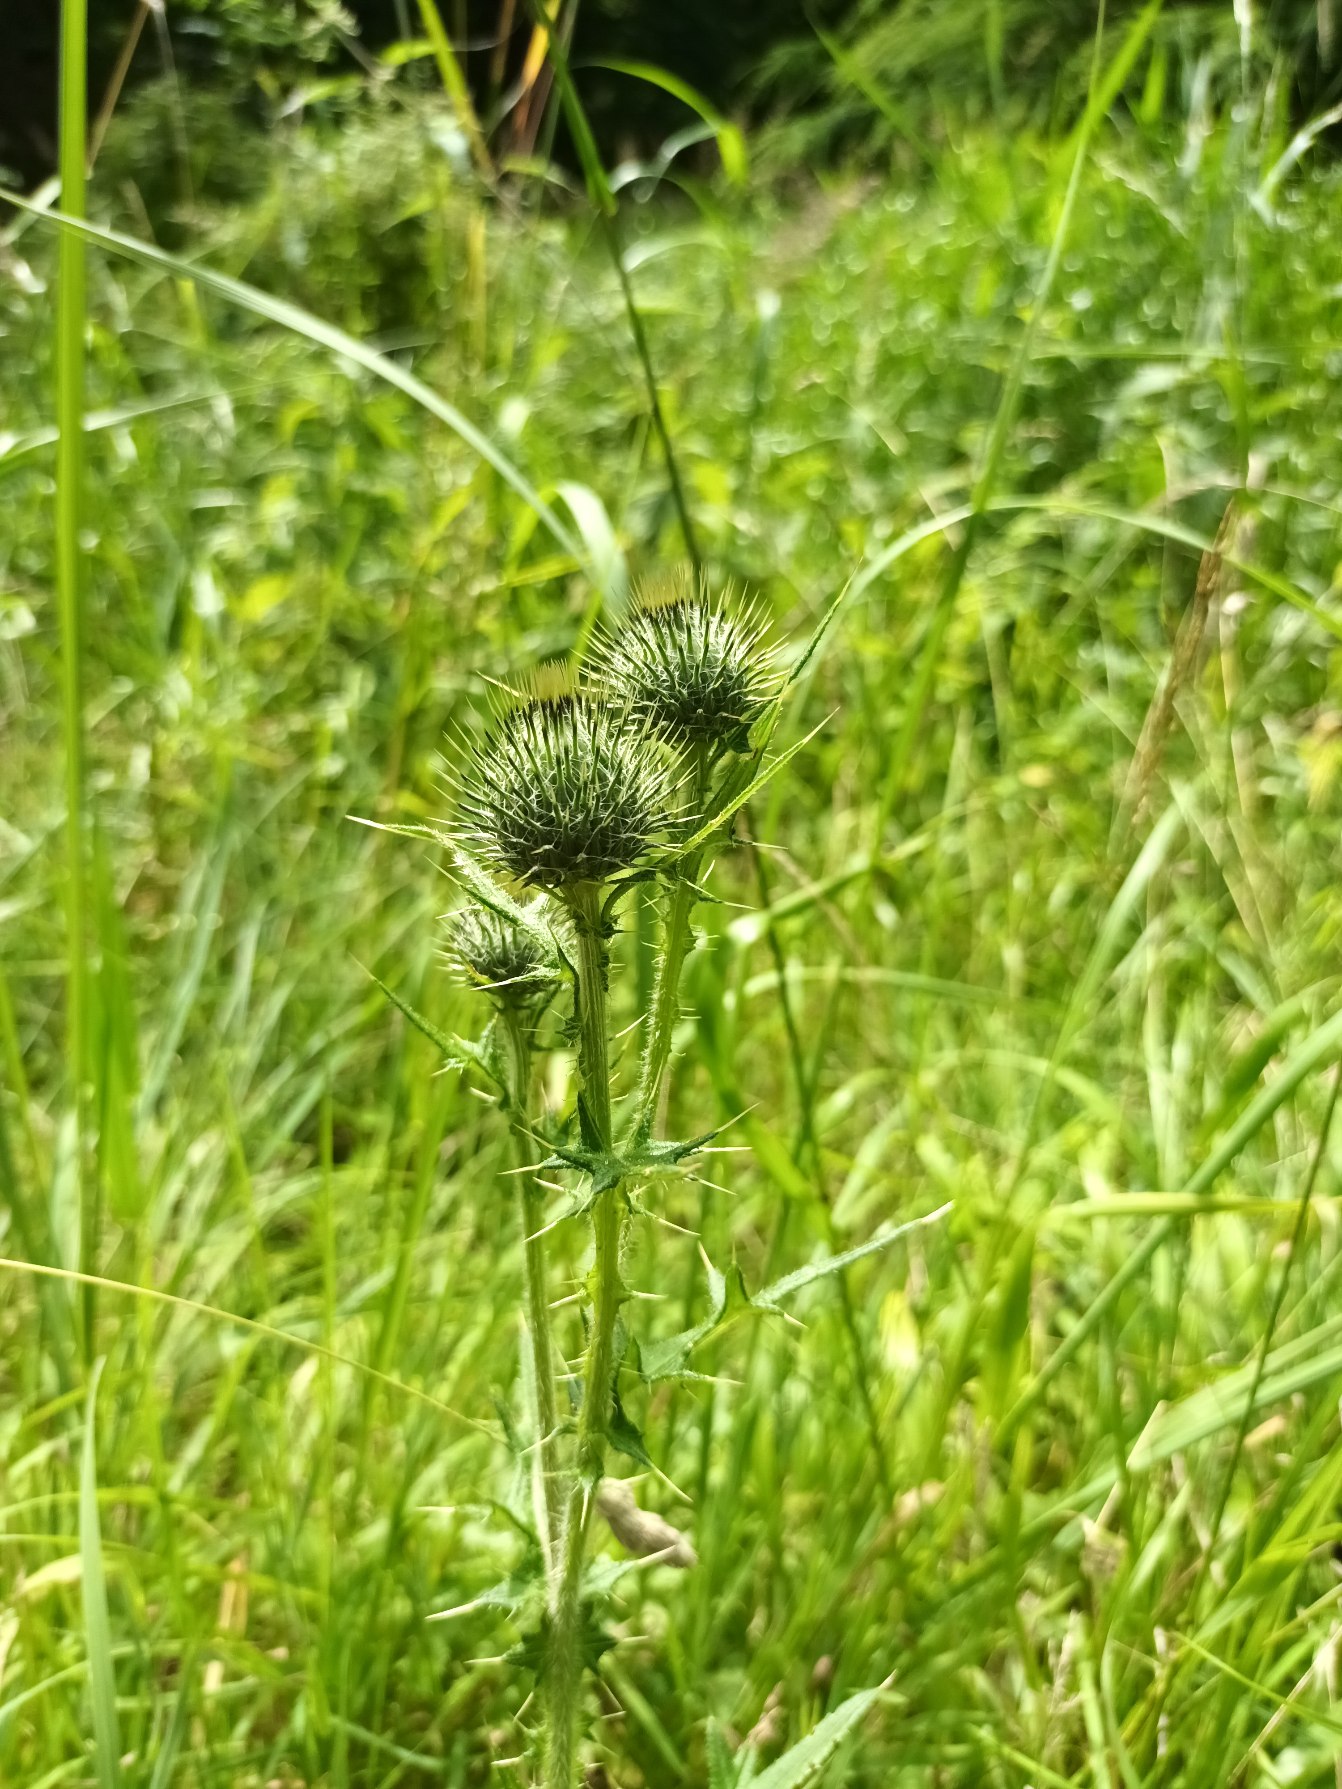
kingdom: Plantae
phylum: Tracheophyta
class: Magnoliopsida
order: Asterales
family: Asteraceae
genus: Cirsium
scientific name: Cirsium vulgare
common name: Horse-tidsel
